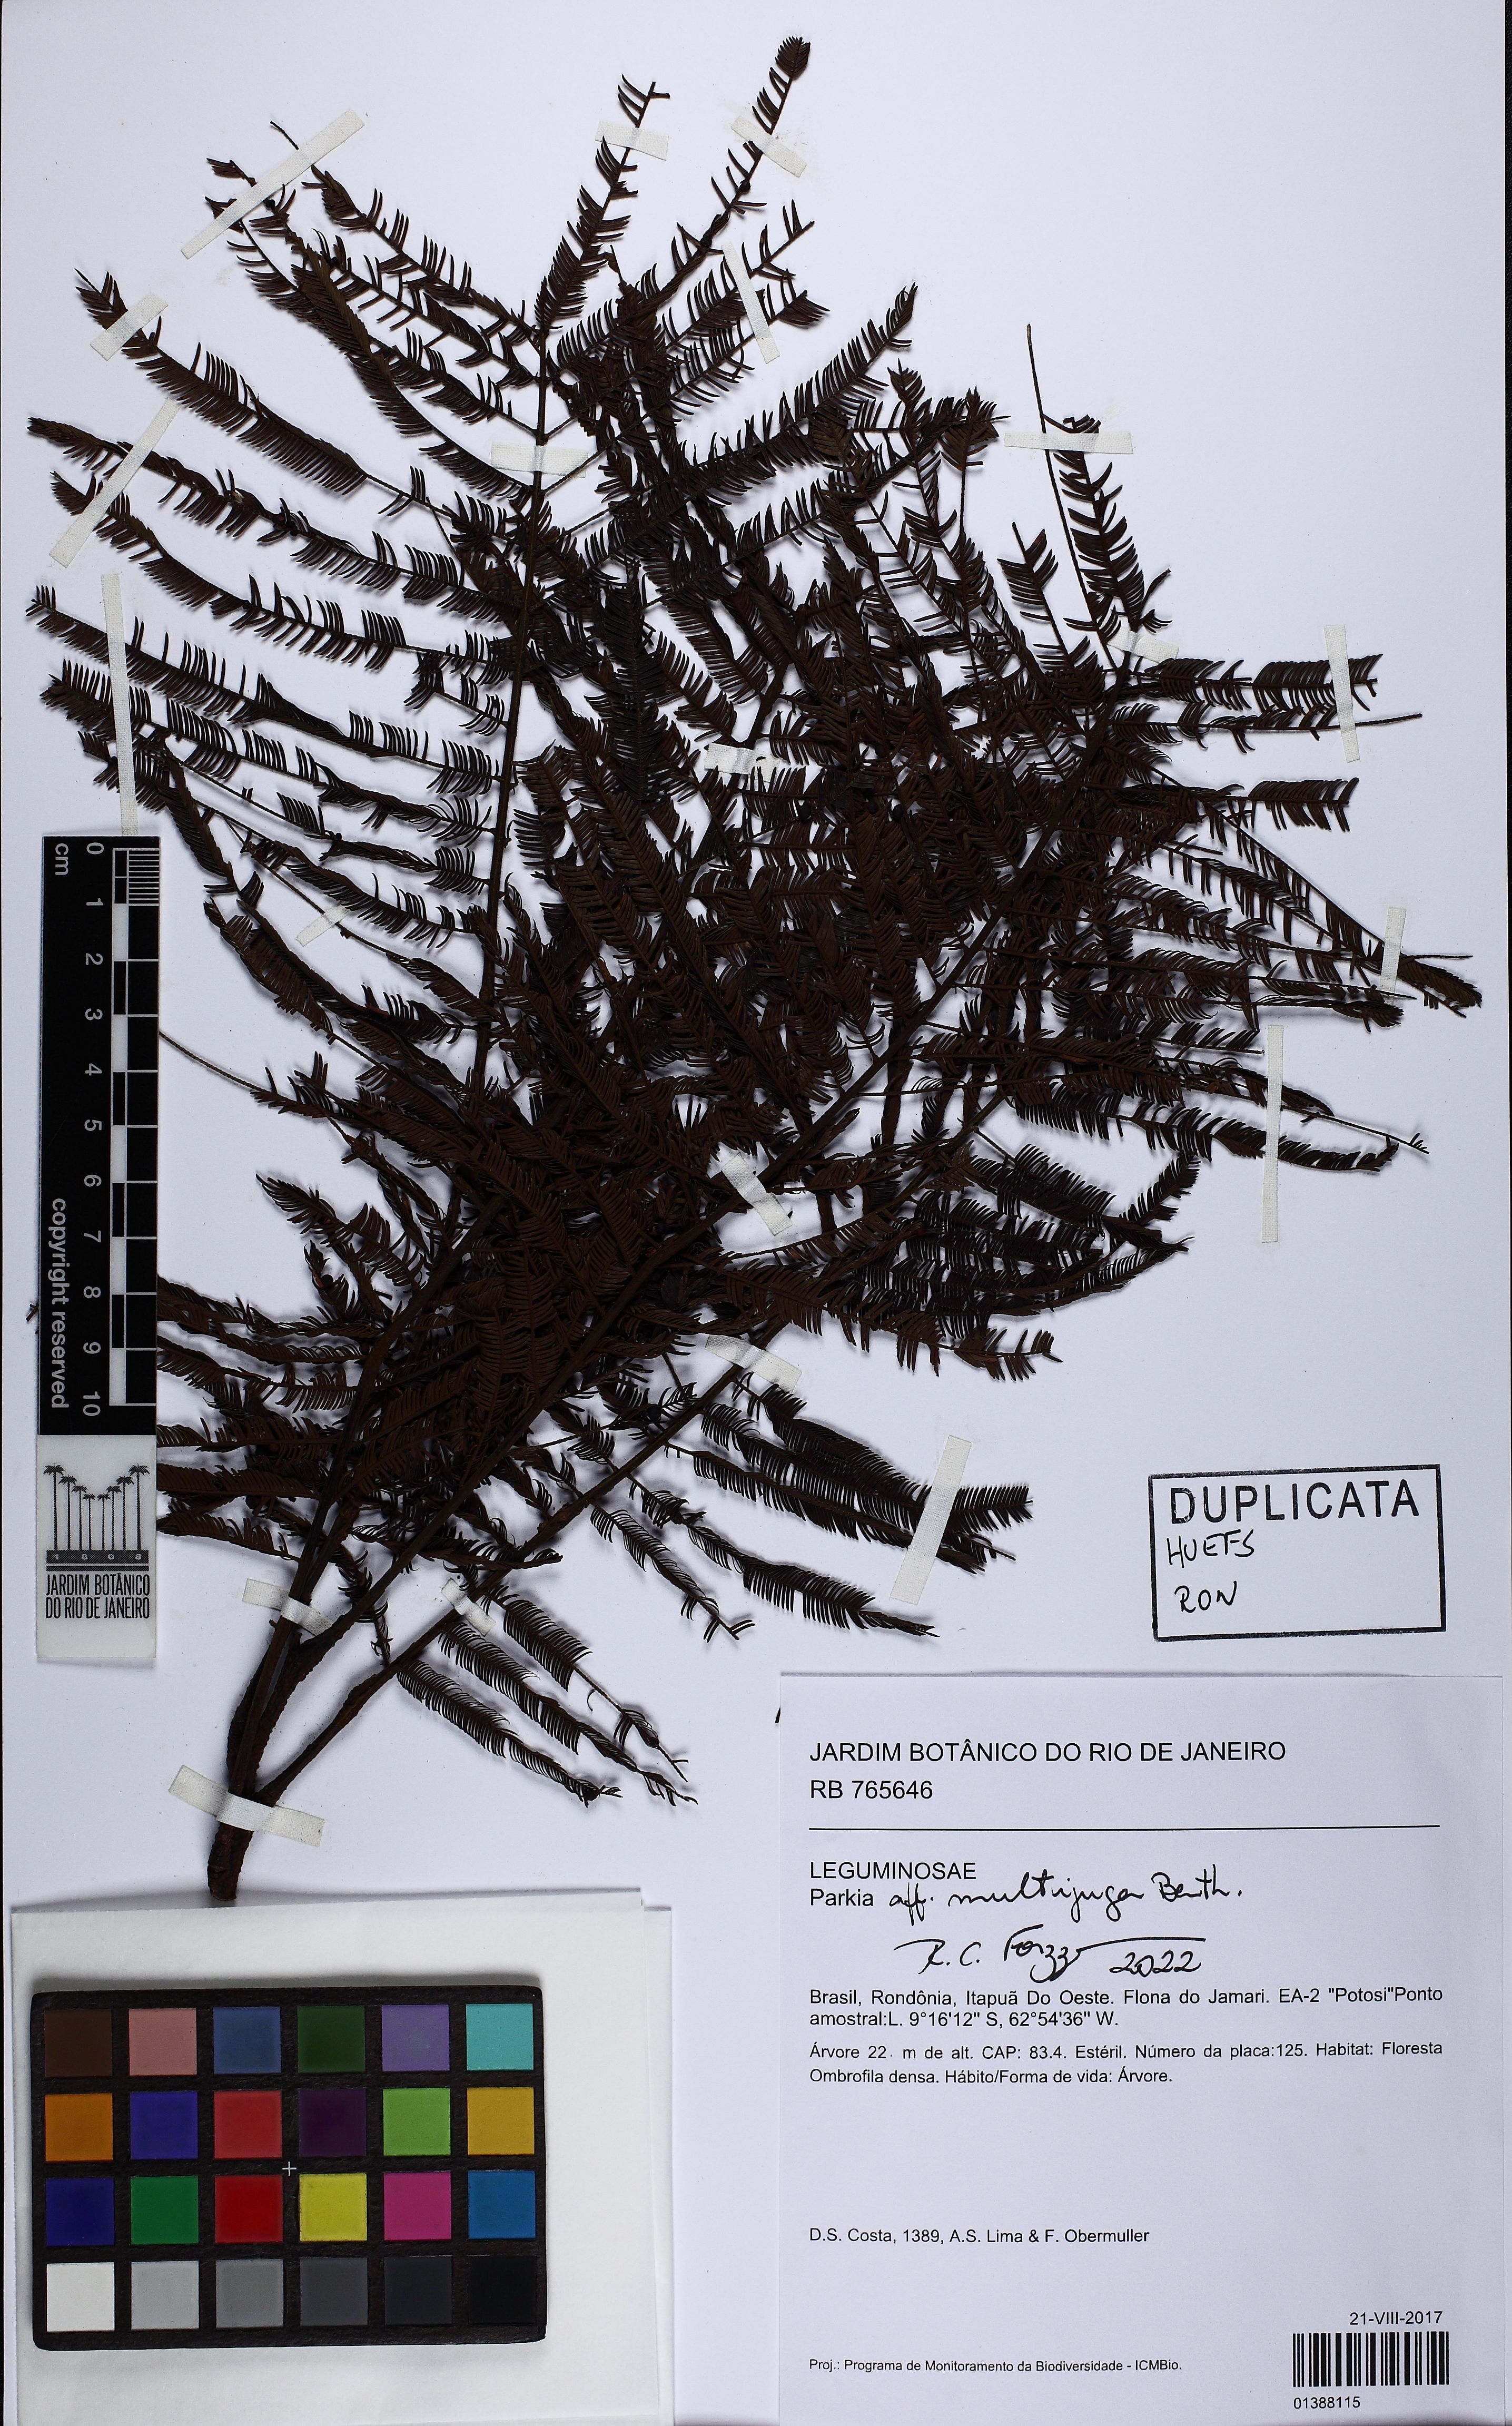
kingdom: Plantae
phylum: Tracheophyta
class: Magnoliopsida
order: Fabales
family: Fabaceae
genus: Parkia
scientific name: Parkia multijuga
